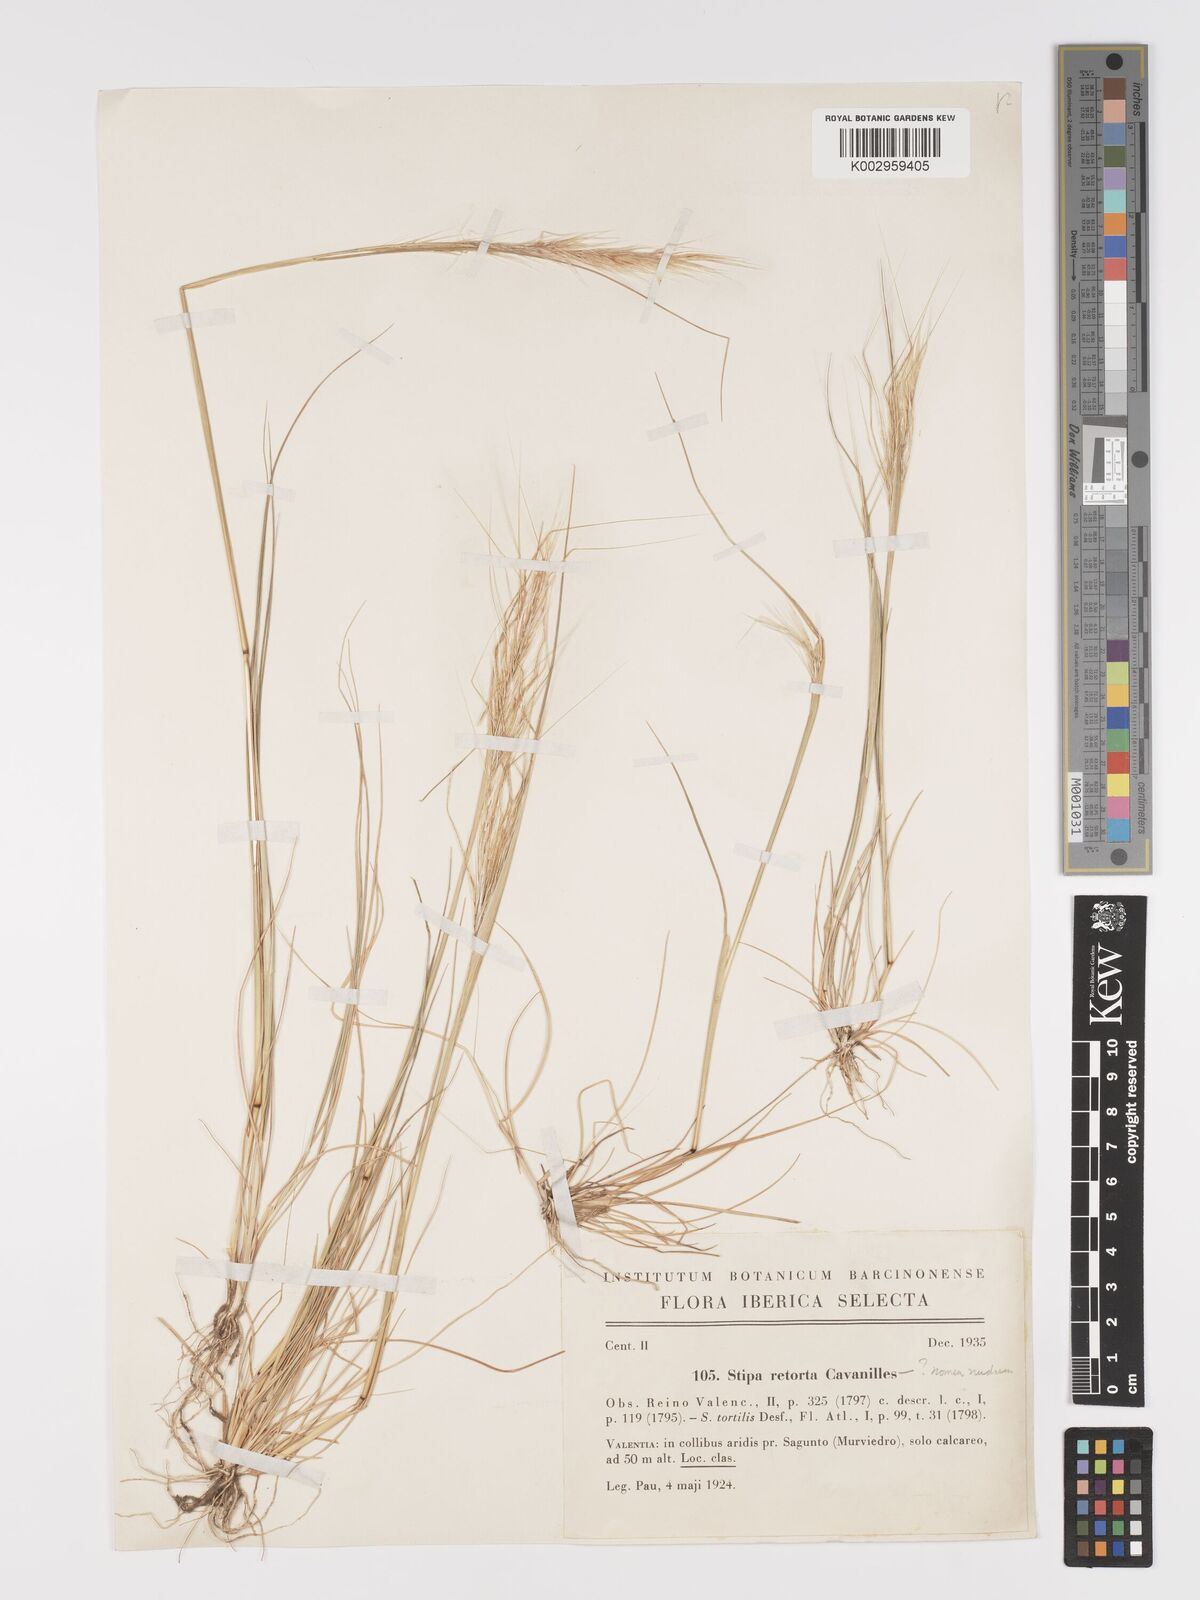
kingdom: Plantae
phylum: Tracheophyta
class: Liliopsida
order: Poales
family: Poaceae
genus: Stipellula
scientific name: Stipellula capensis
